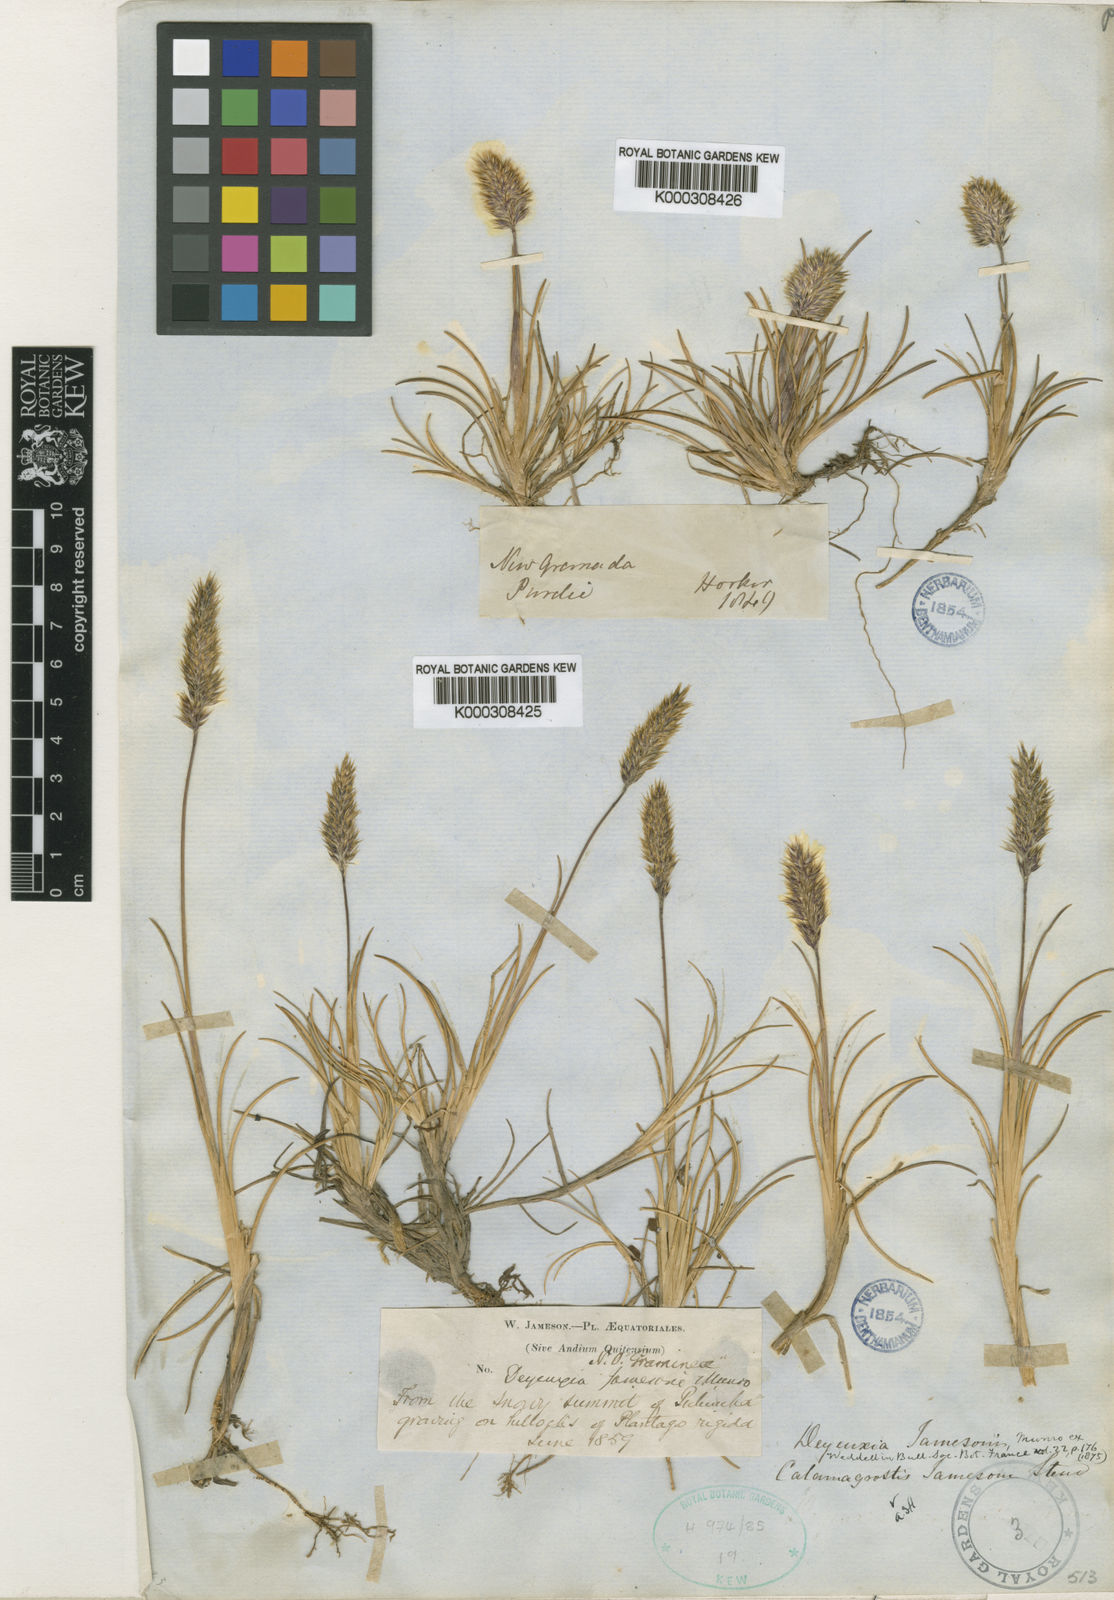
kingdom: Plantae
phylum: Tracheophyta
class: Liliopsida
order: Poales
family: Poaceae
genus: Cinnagrostis
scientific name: Cinnagrostis jamesonii
